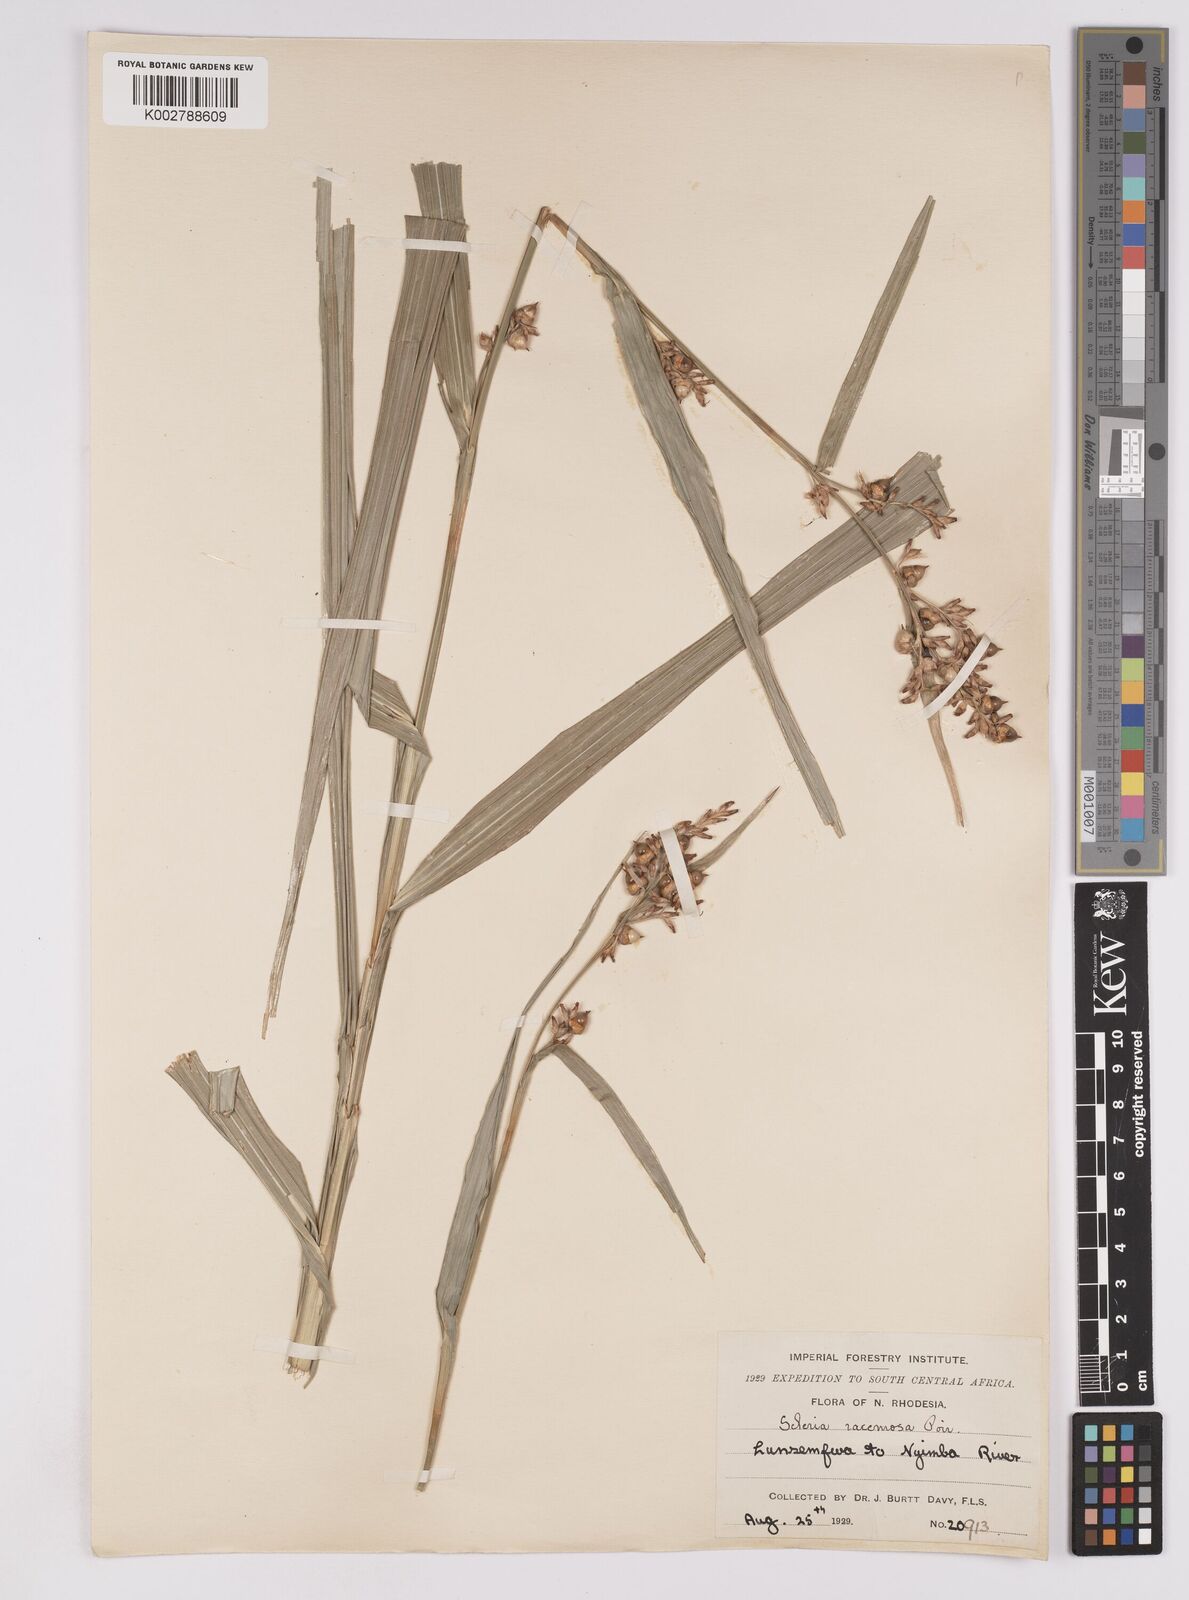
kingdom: Plantae
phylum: Tracheophyta
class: Liliopsida
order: Poales
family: Cyperaceae
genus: Scleria
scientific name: Scleria racemosa
